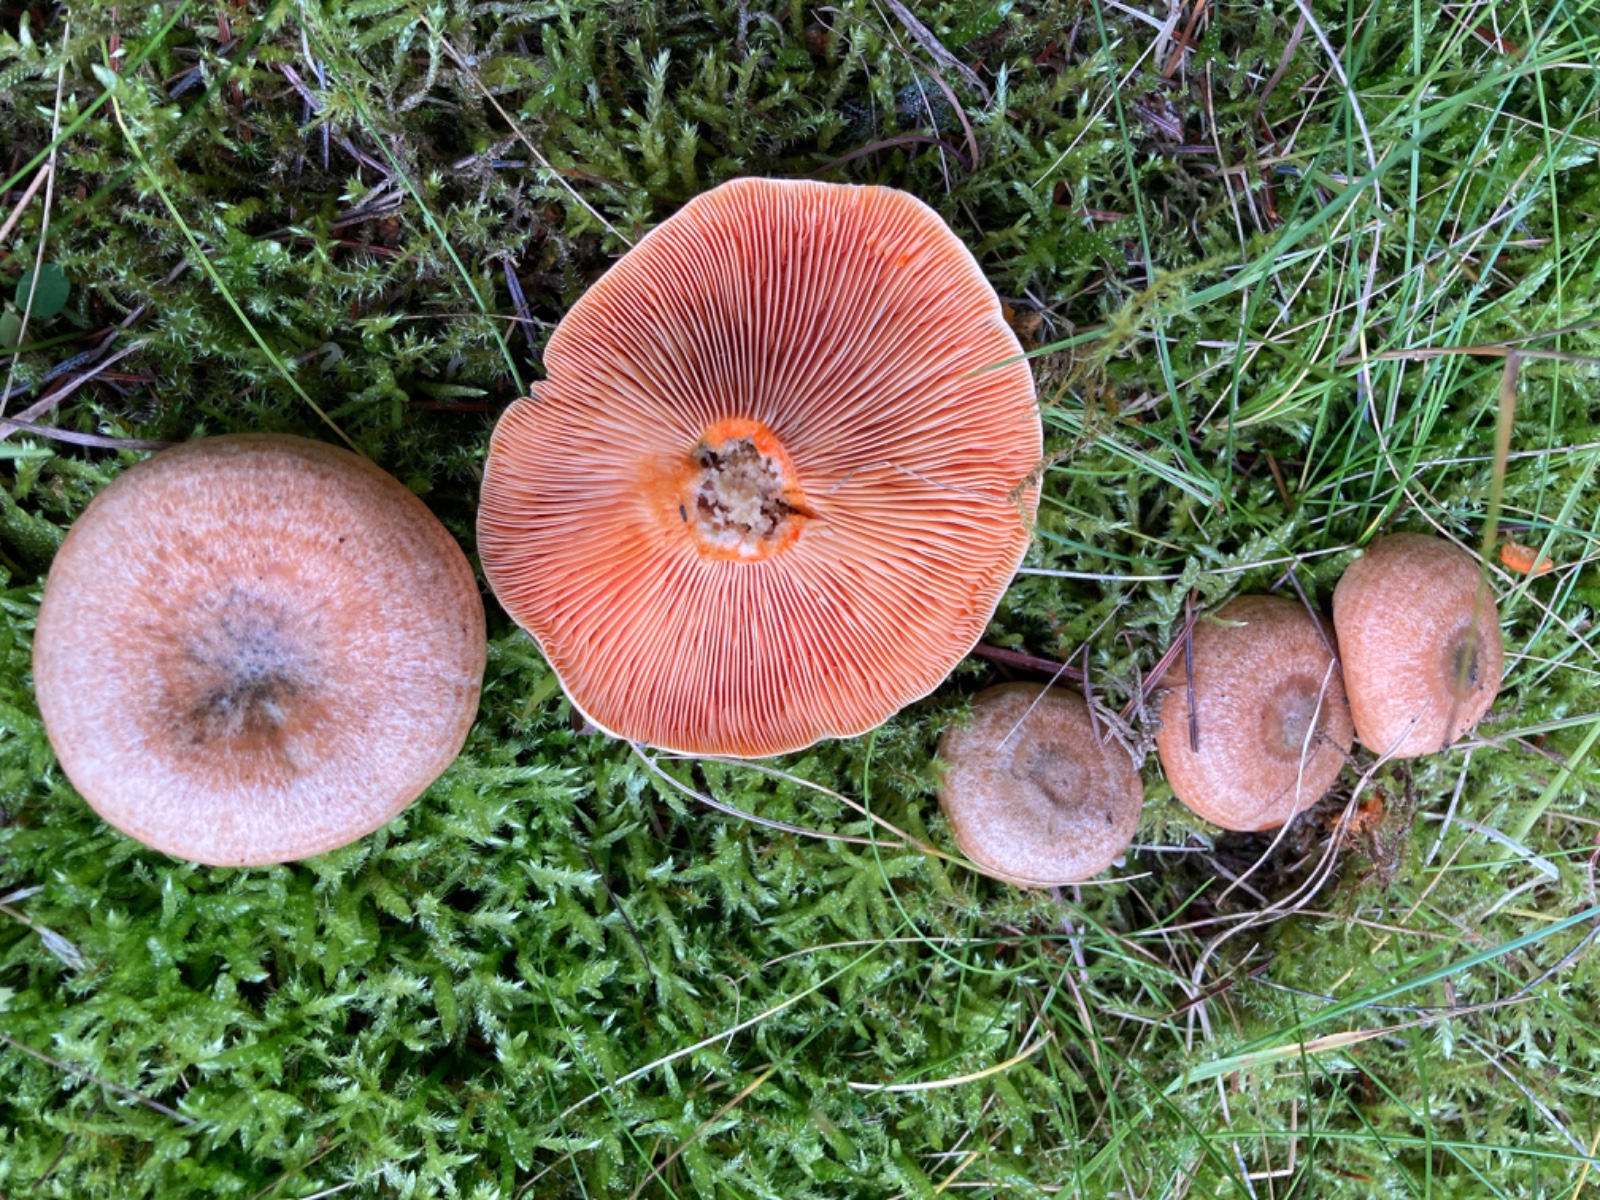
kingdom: Fungi
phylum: Basidiomycota
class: Agaricomycetes
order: Russulales
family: Russulaceae
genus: Lactarius
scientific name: Lactarius deterrimus
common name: gran-mælkehat
